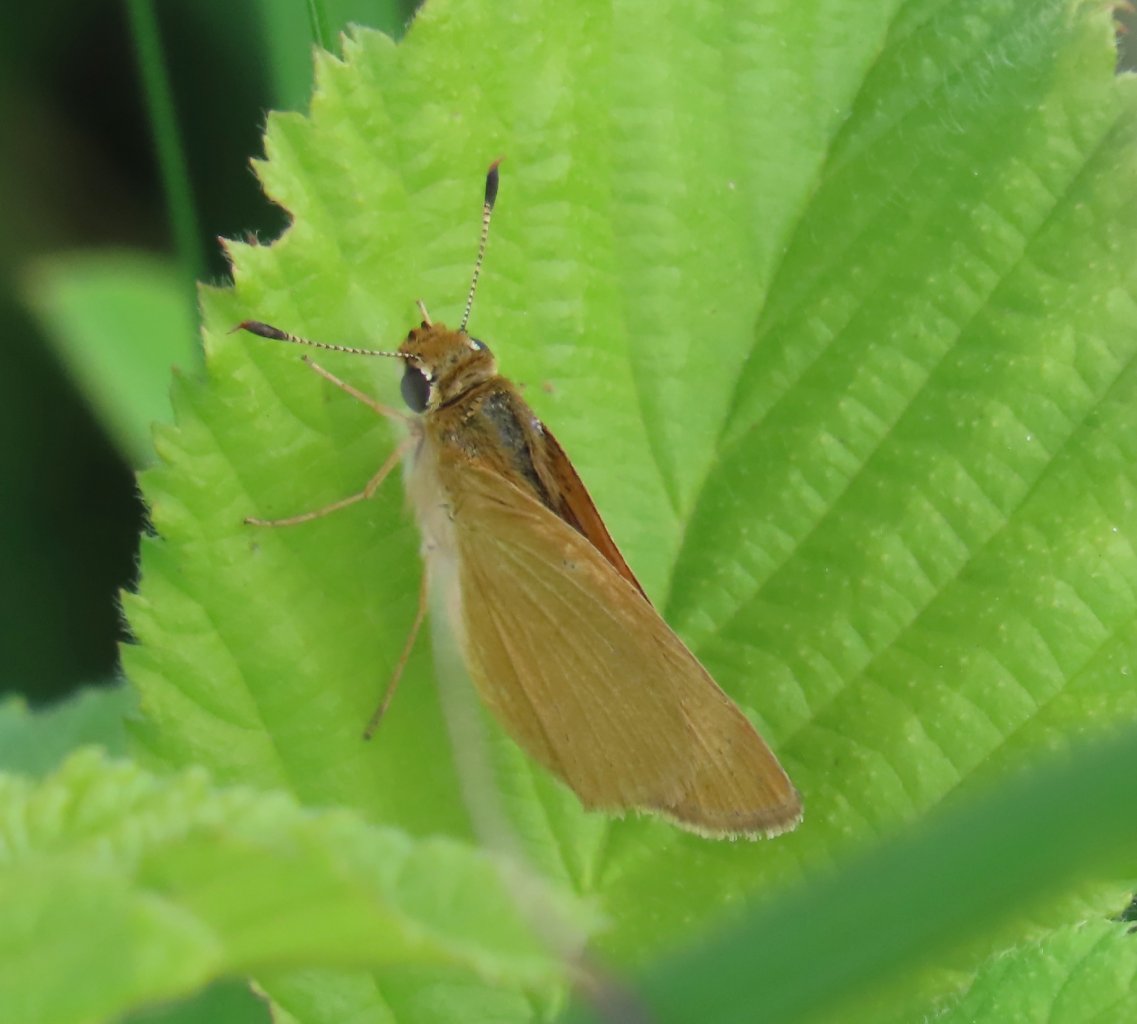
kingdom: Animalia
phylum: Arthropoda
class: Insecta
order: Lepidoptera
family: Hesperiidae
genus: Atrytone
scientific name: Atrytone delaware
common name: Delaware Skipper
